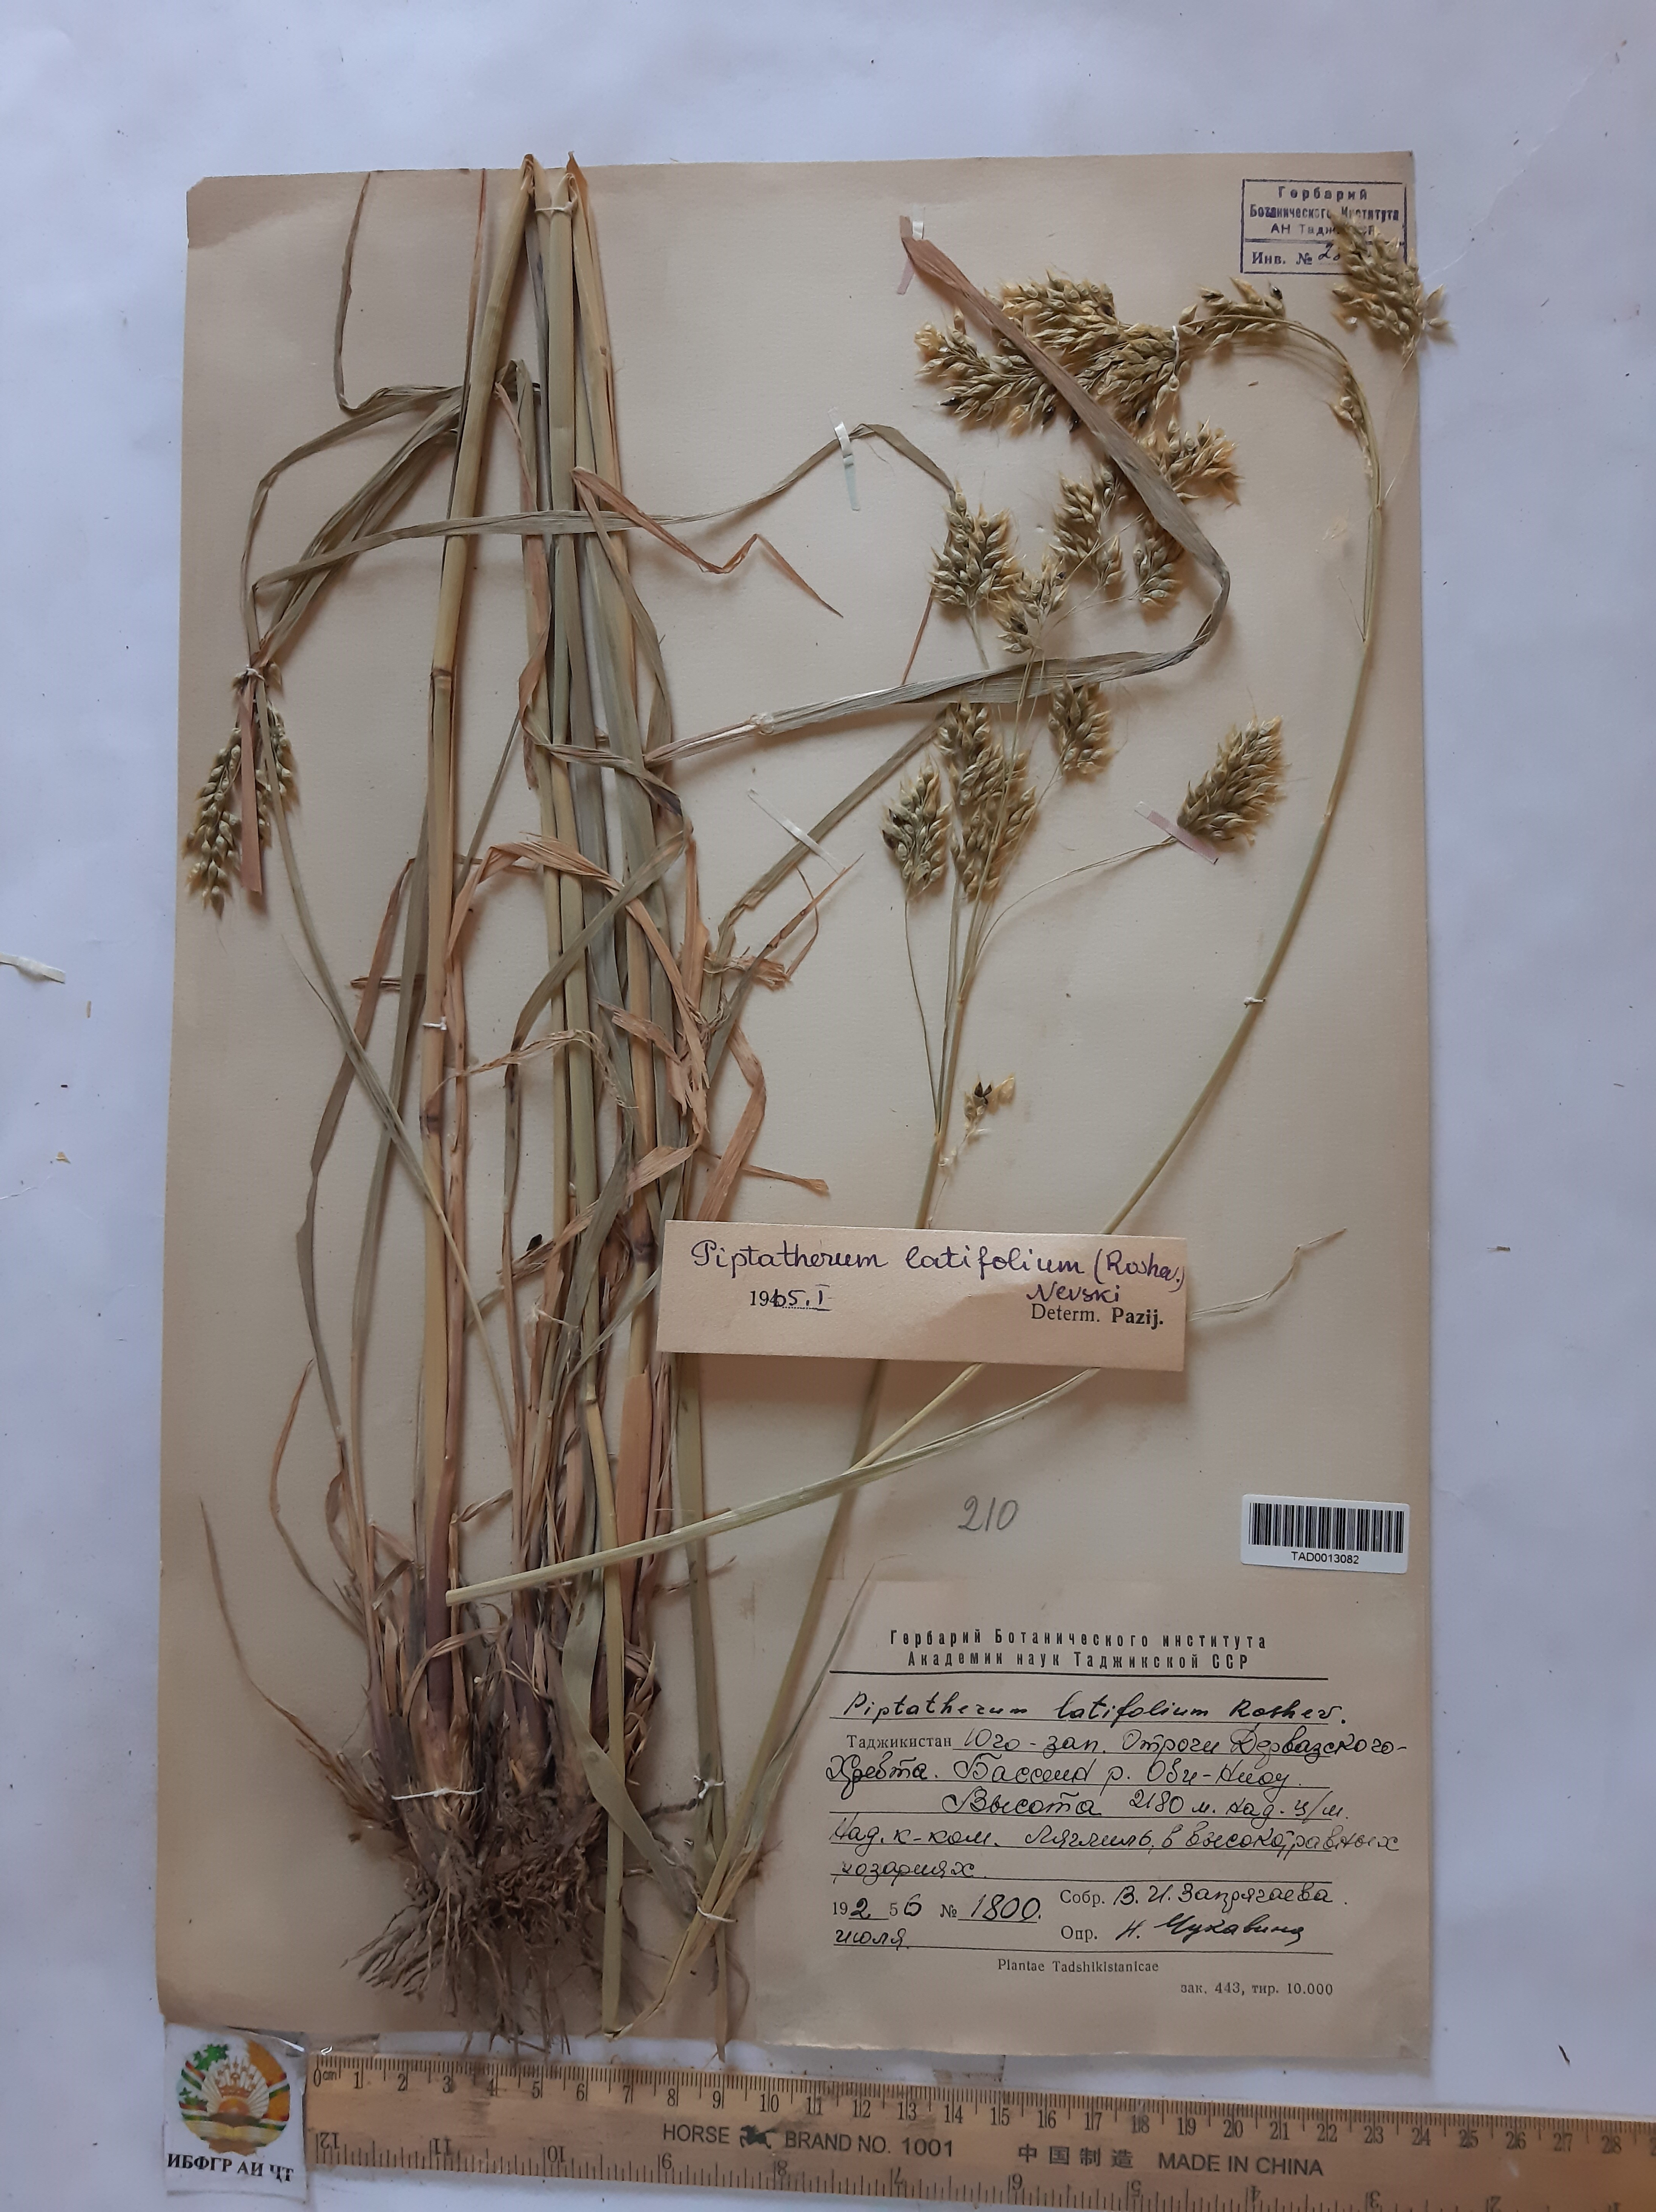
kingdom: Plantae
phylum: Tracheophyta
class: Liliopsida
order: Poales
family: Poaceae
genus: Piptatherum
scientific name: Piptatherum laterale
